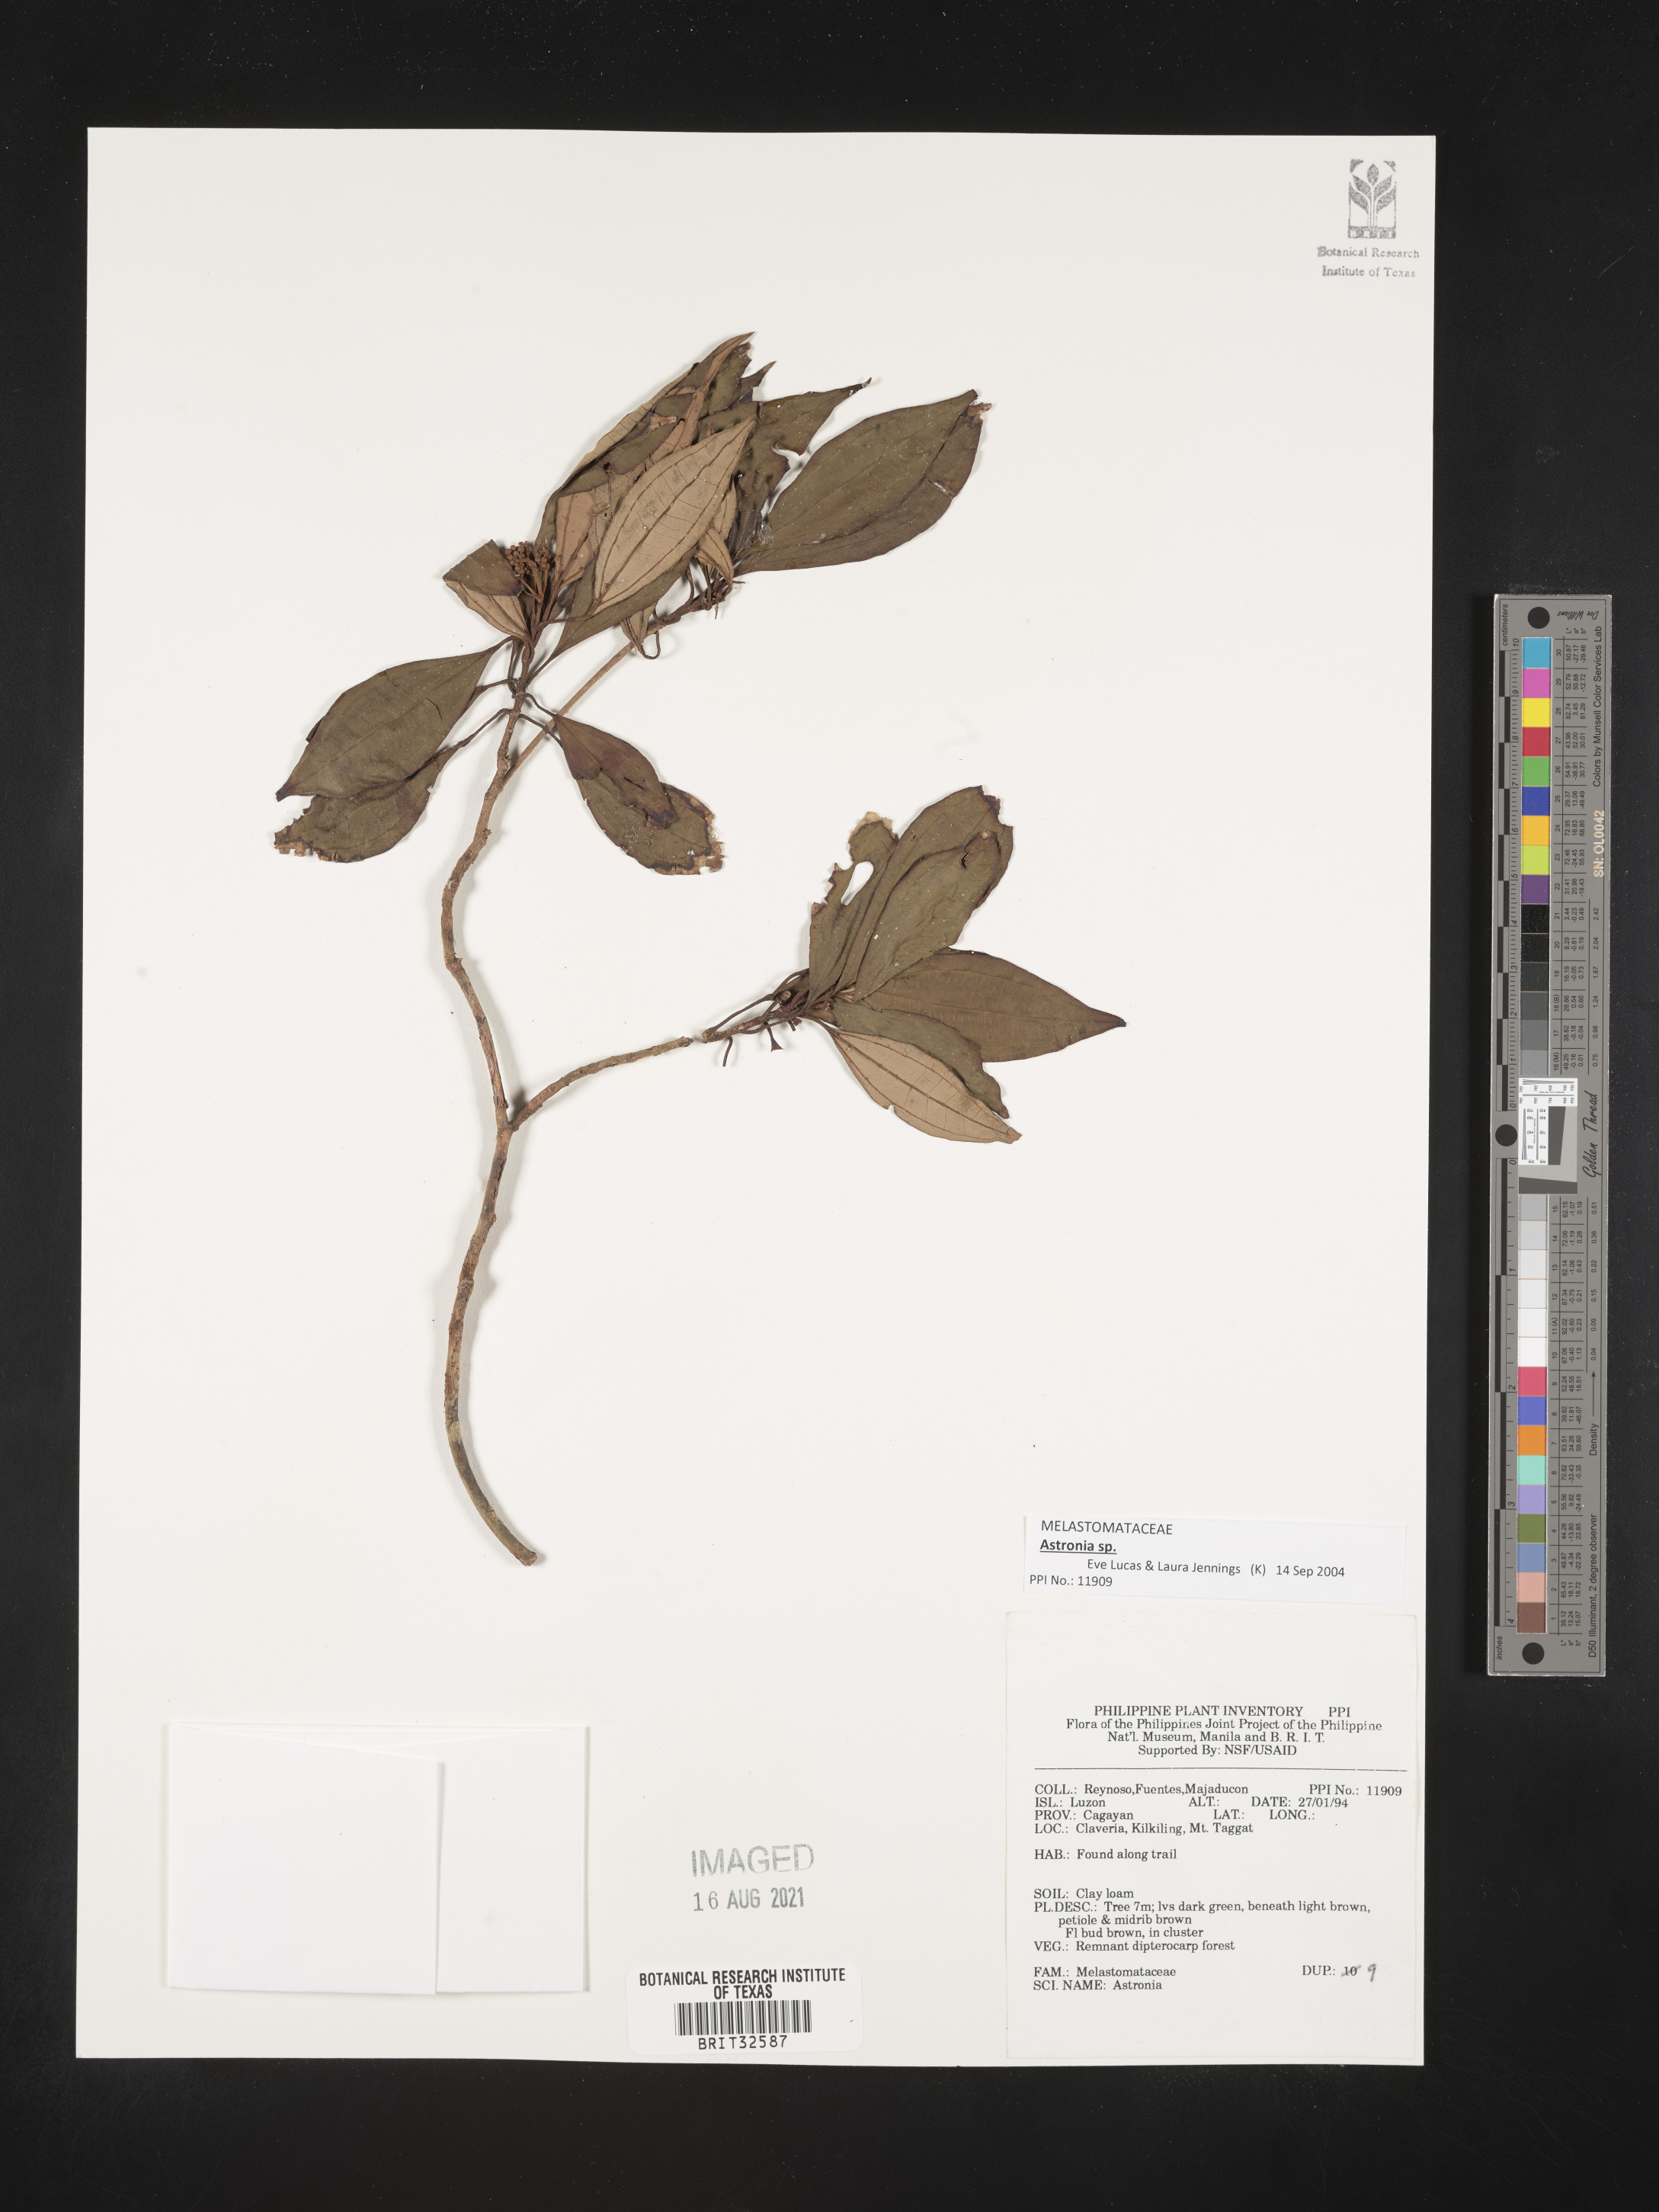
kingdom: Plantae
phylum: Tracheophyta
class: Magnoliopsida
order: Myrtales
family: Melastomataceae
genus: Astronia
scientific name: Astronia
